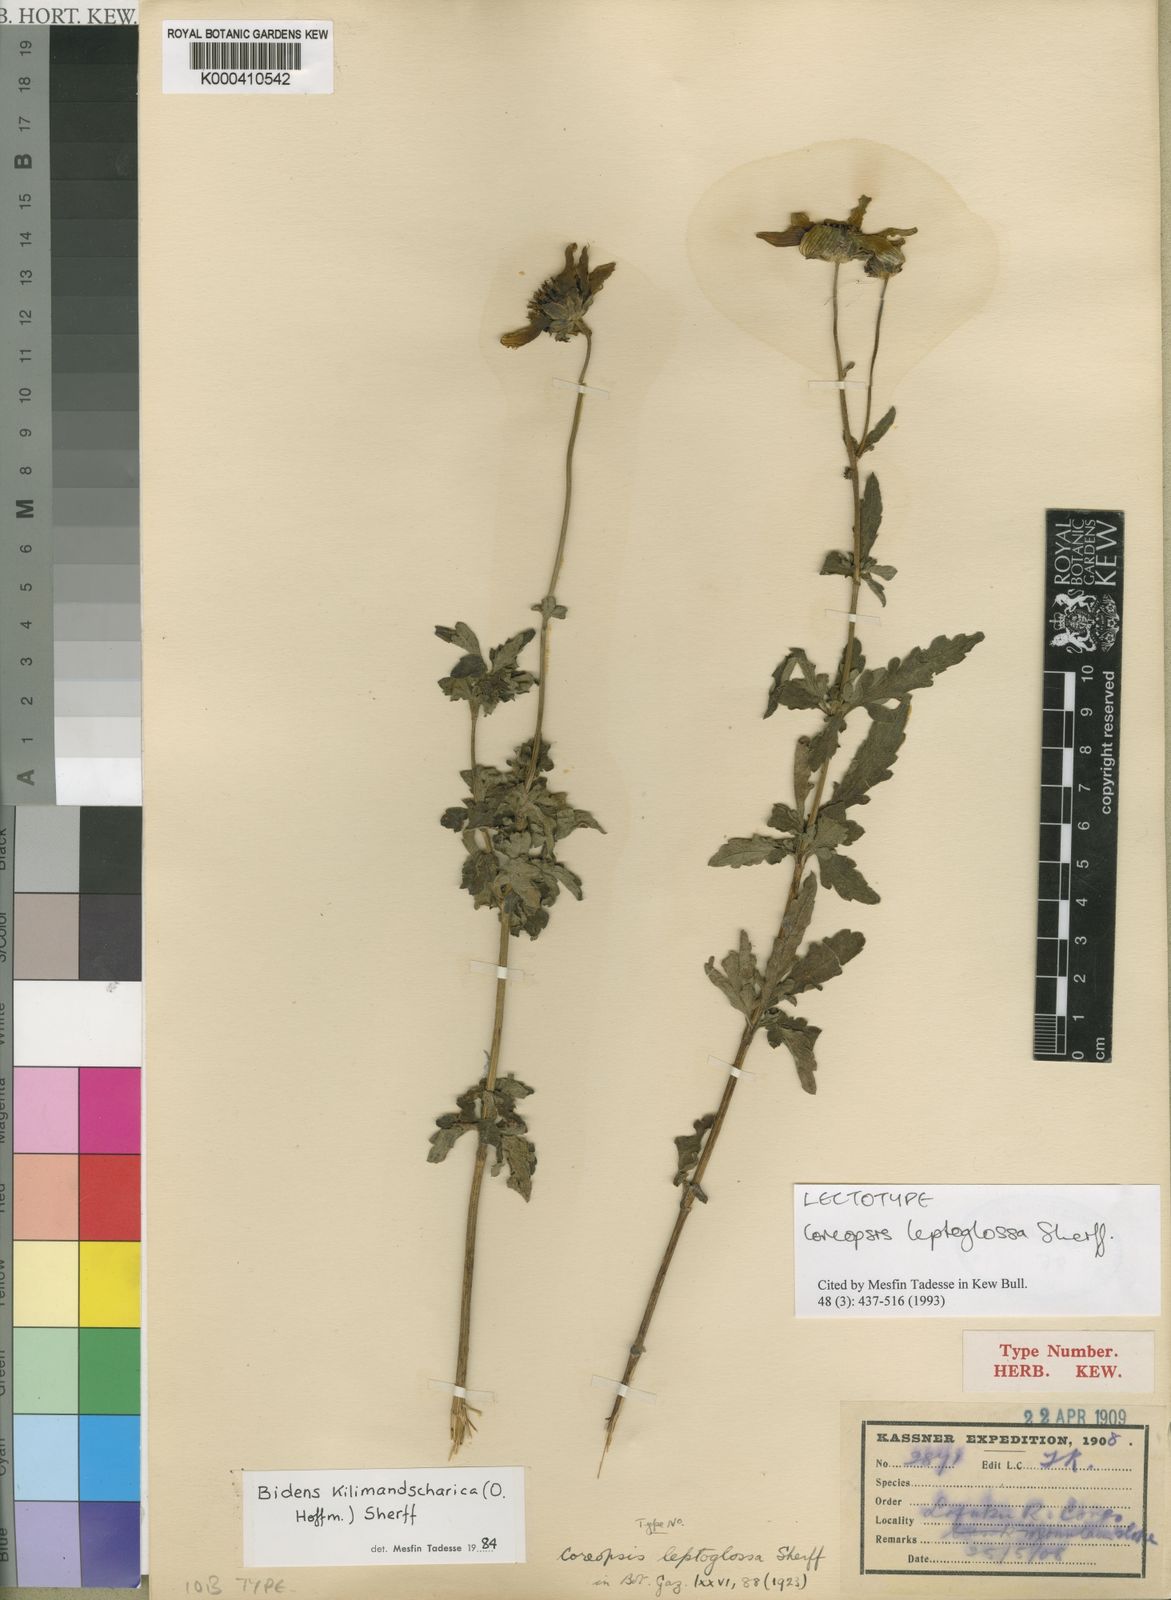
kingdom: Plantae
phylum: Tracheophyta
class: Magnoliopsida
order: Asterales
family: Asteraceae
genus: Bidens
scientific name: Bidens kilimandscharica
